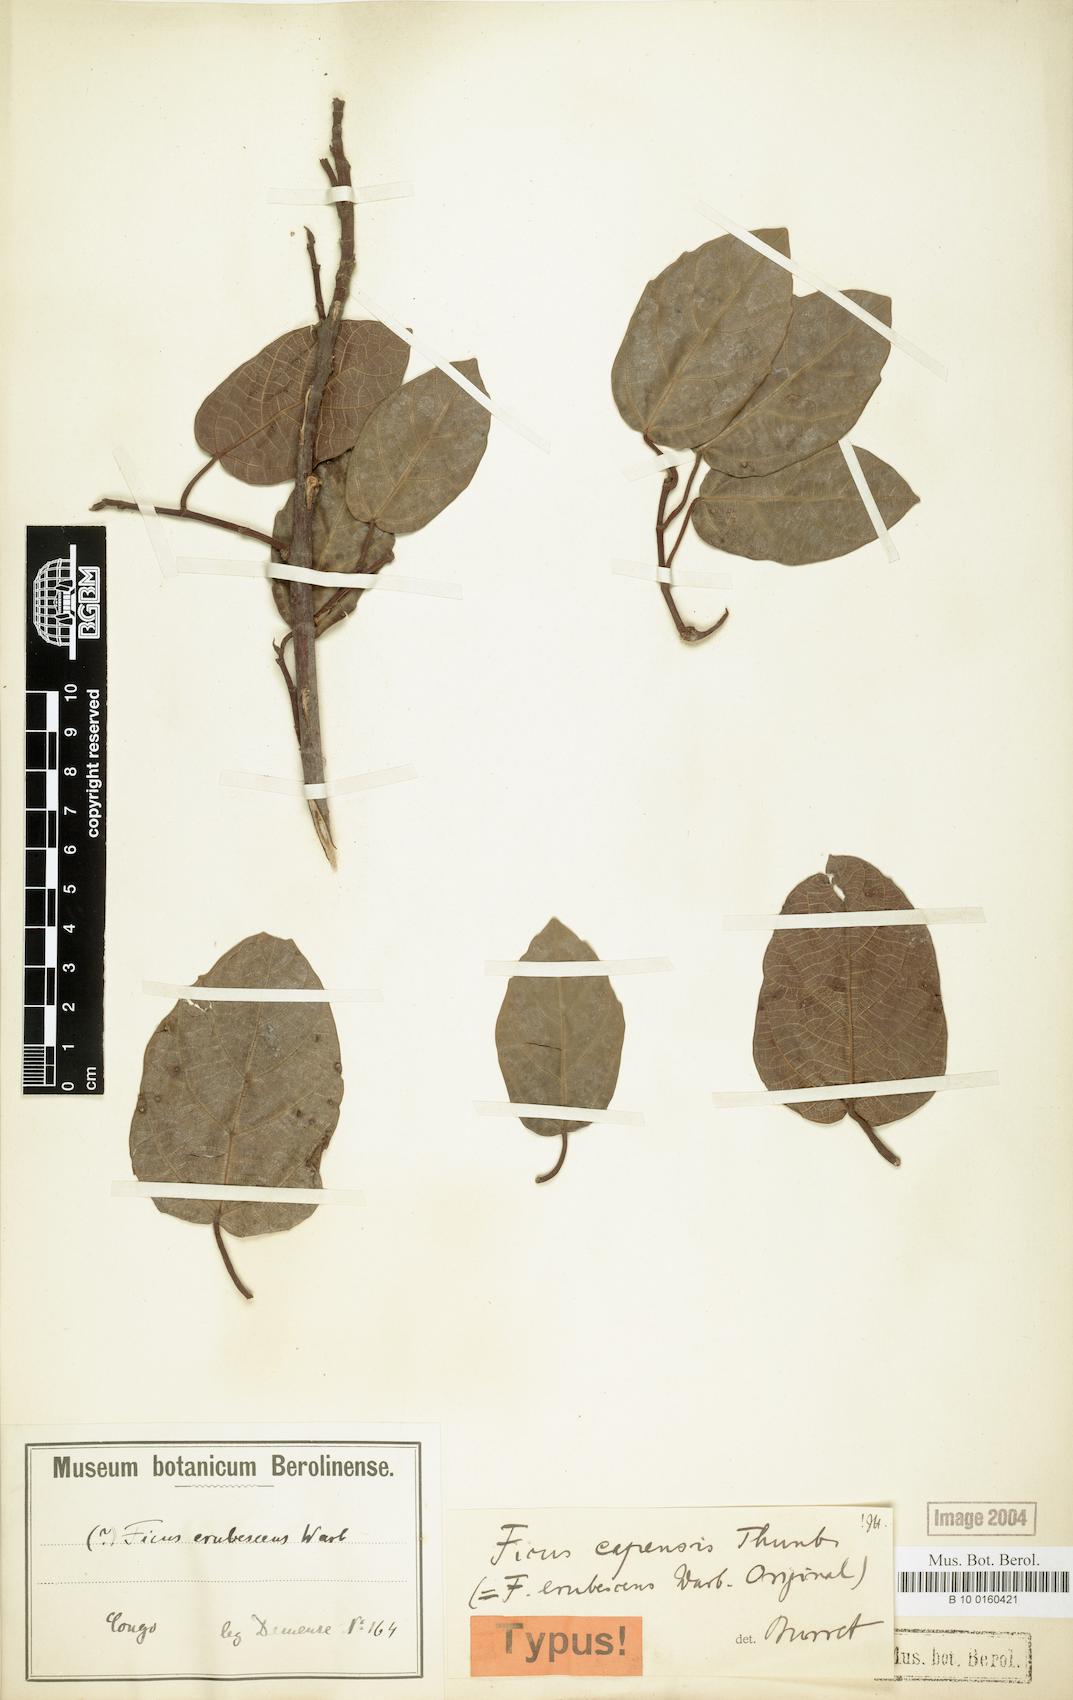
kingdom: Plantae
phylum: Tracheophyta
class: Magnoliopsida
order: Rosales
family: Moraceae
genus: Ficus
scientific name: Ficus sur
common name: Cape fig
